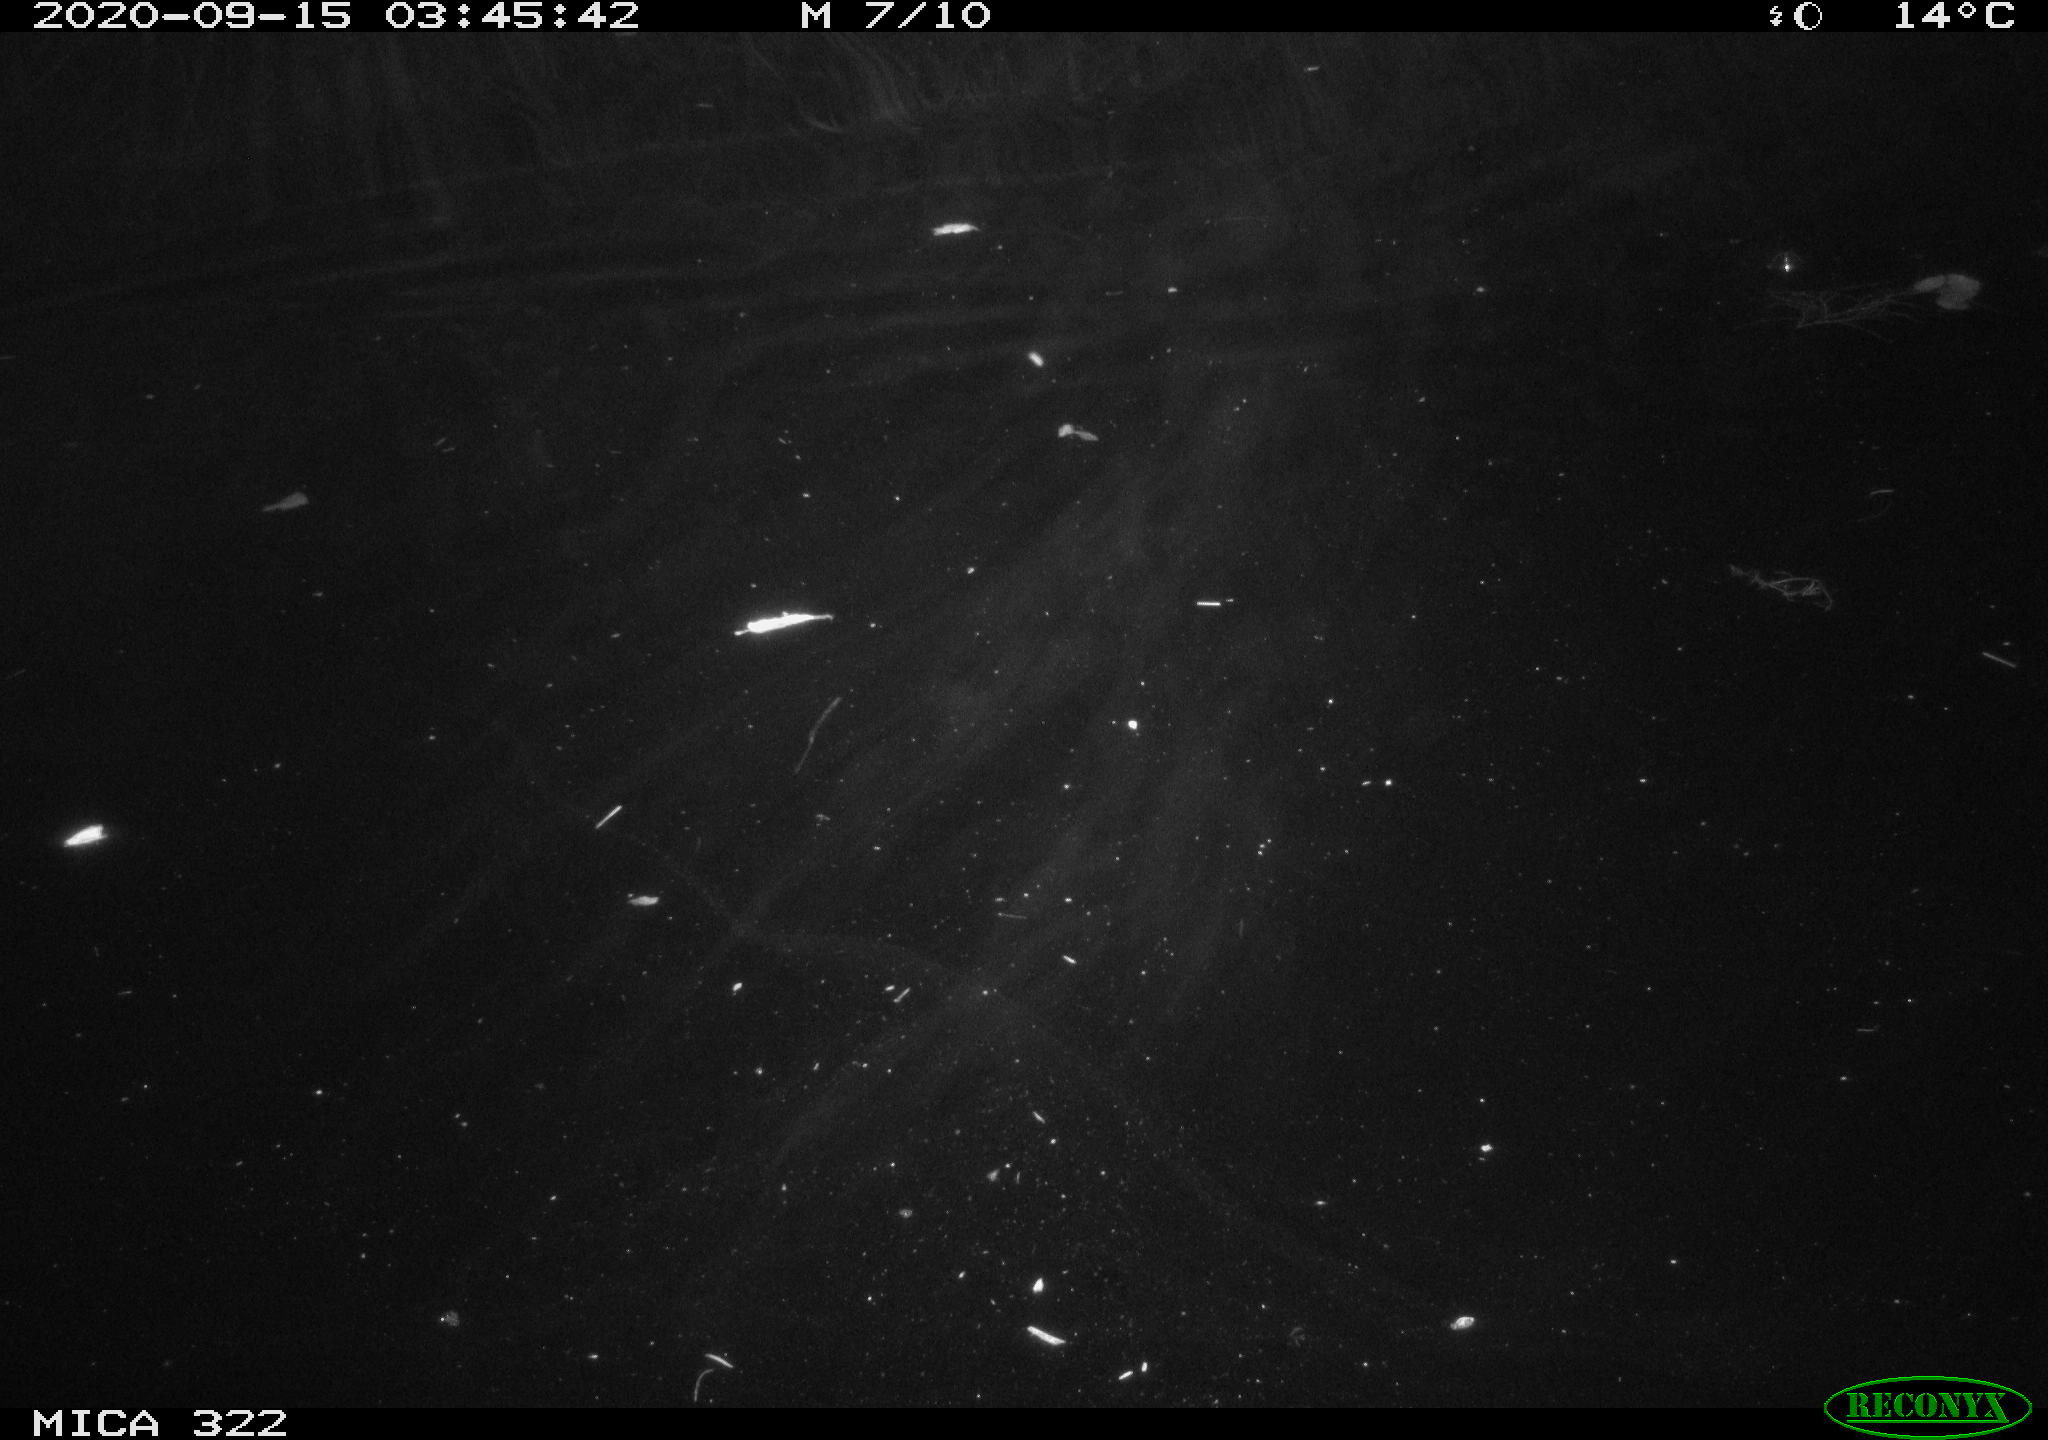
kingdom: Animalia
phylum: Chordata
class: Mammalia
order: Rodentia
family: Muridae
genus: Rattus
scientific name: Rattus norvegicus
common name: Brown rat
